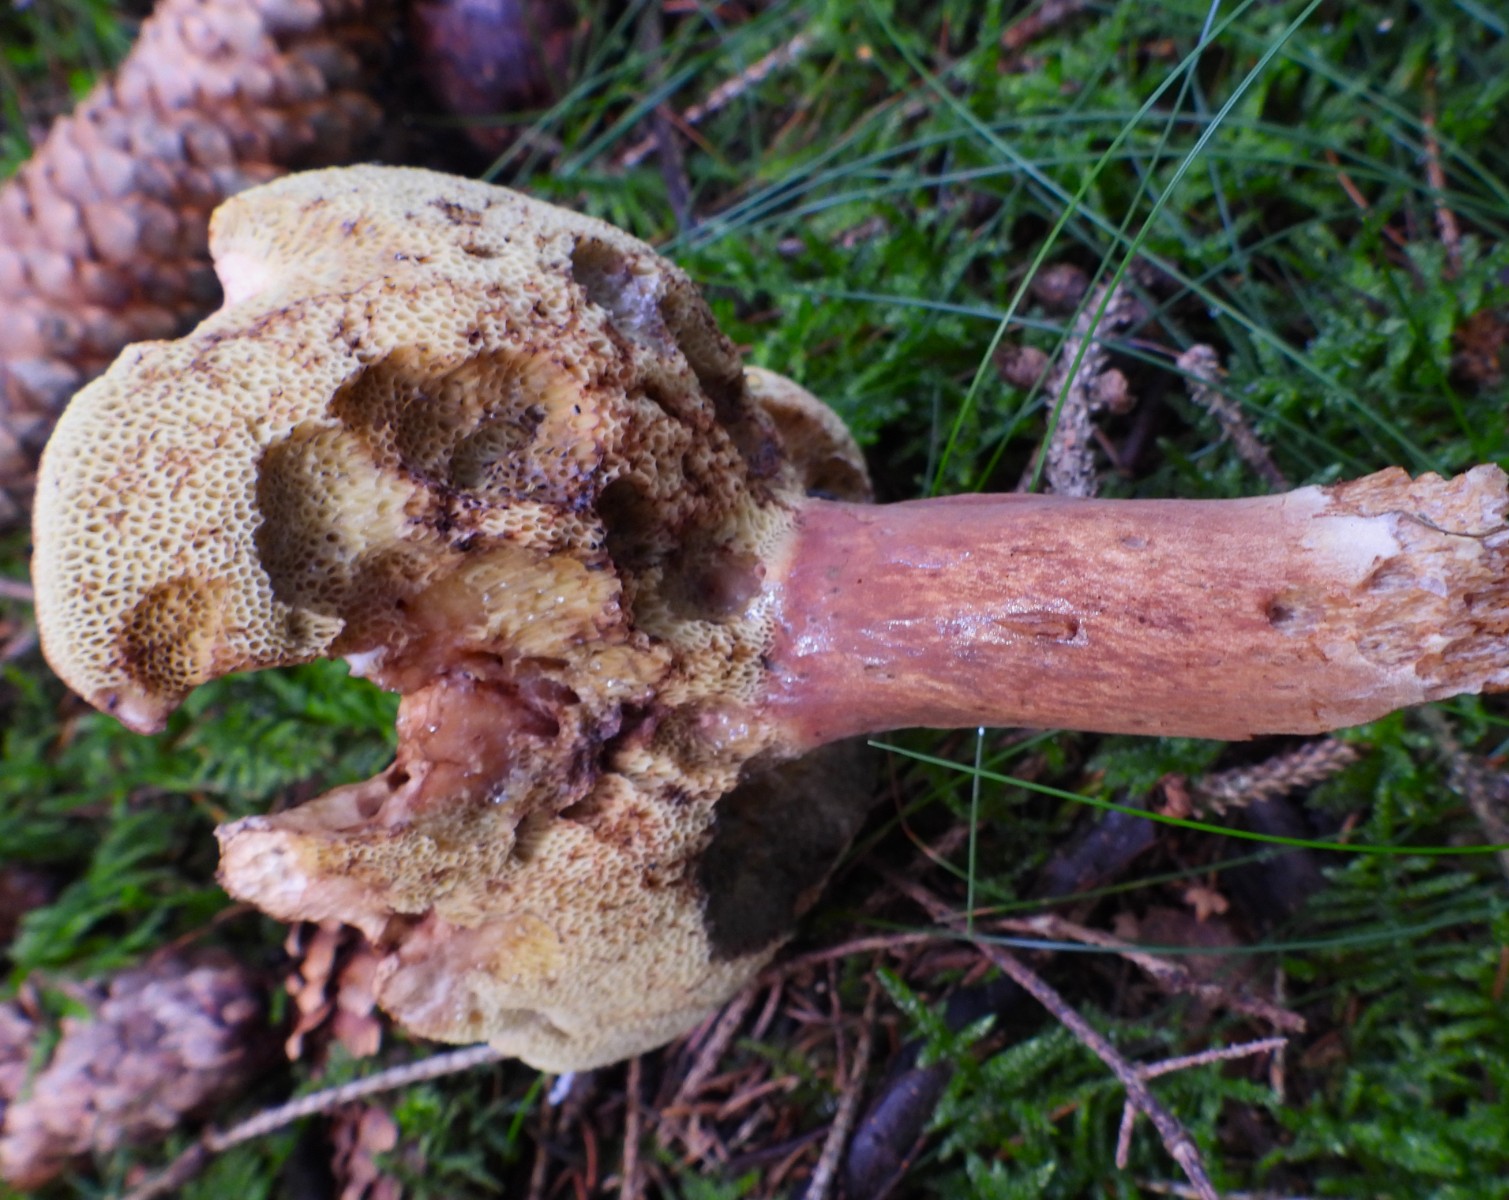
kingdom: Fungi
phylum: Basidiomycota
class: Agaricomycetes
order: Boletales
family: Boletaceae
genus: Imleria
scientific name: Imleria badia
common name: brunstokket rørhat
